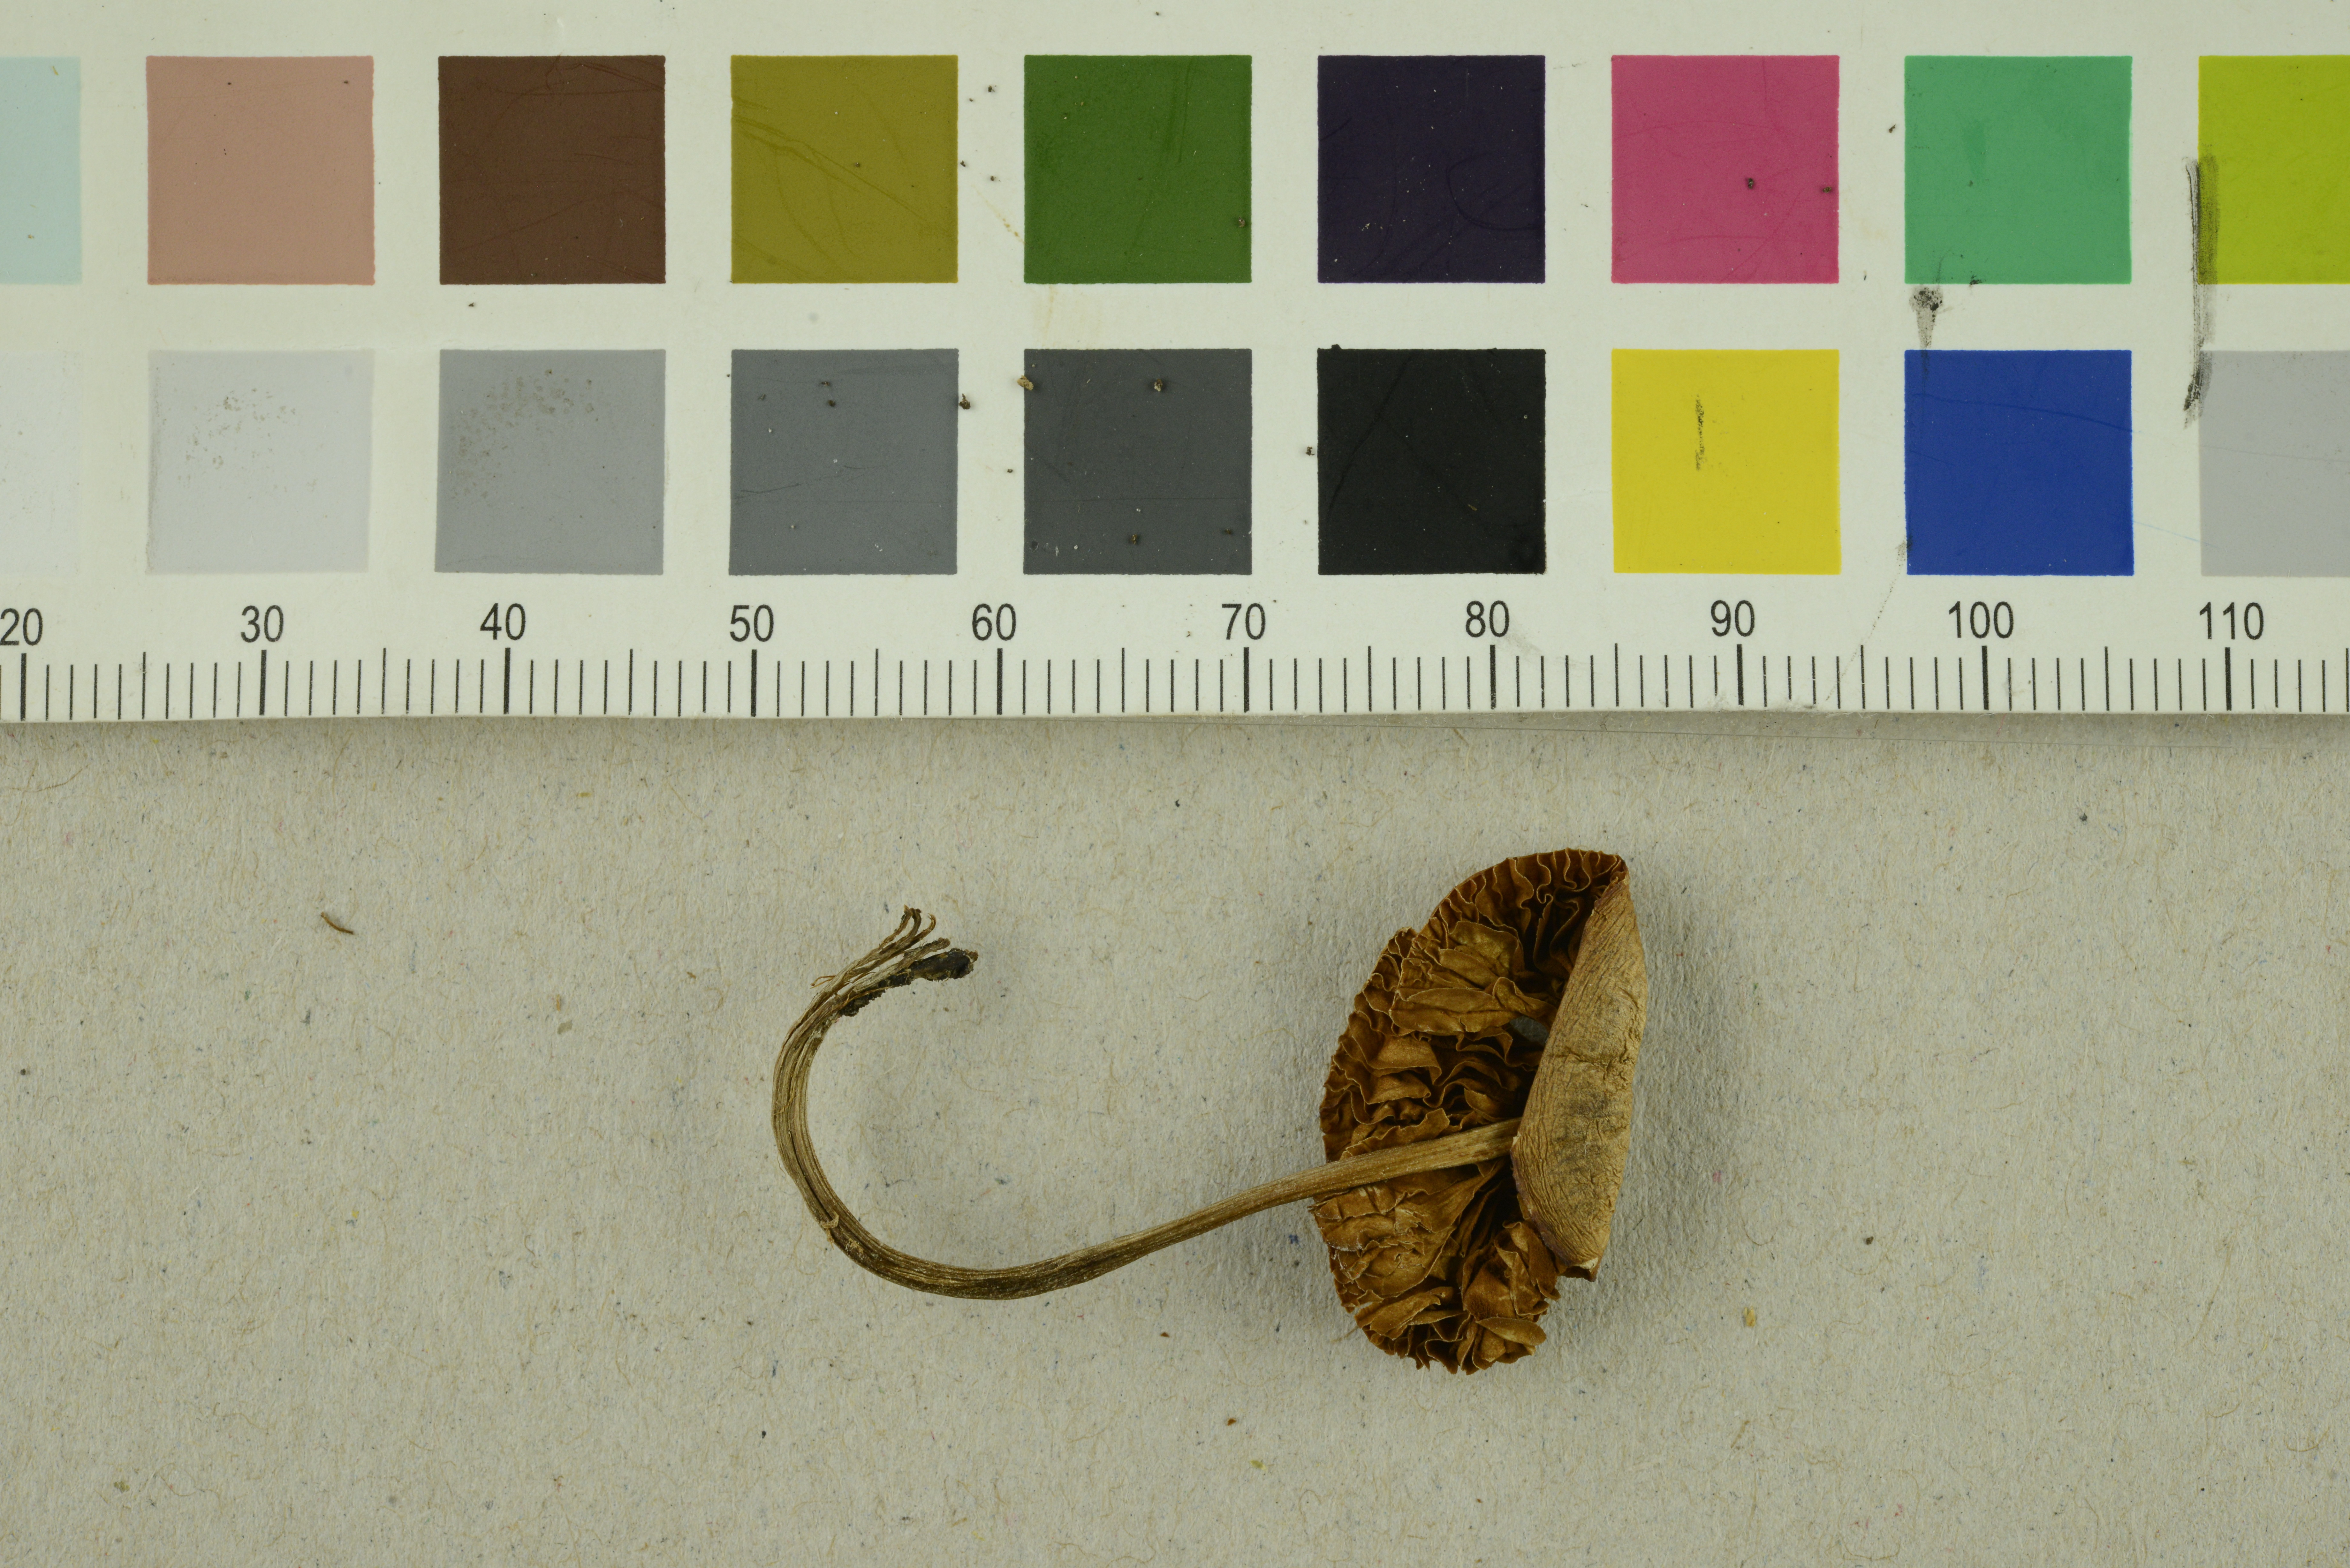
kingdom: Fungi
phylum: Basidiomycota
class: Agaricomycetes
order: Agaricales
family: Bolbitiaceae
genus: Conocybe
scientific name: Conocybe magnispora
